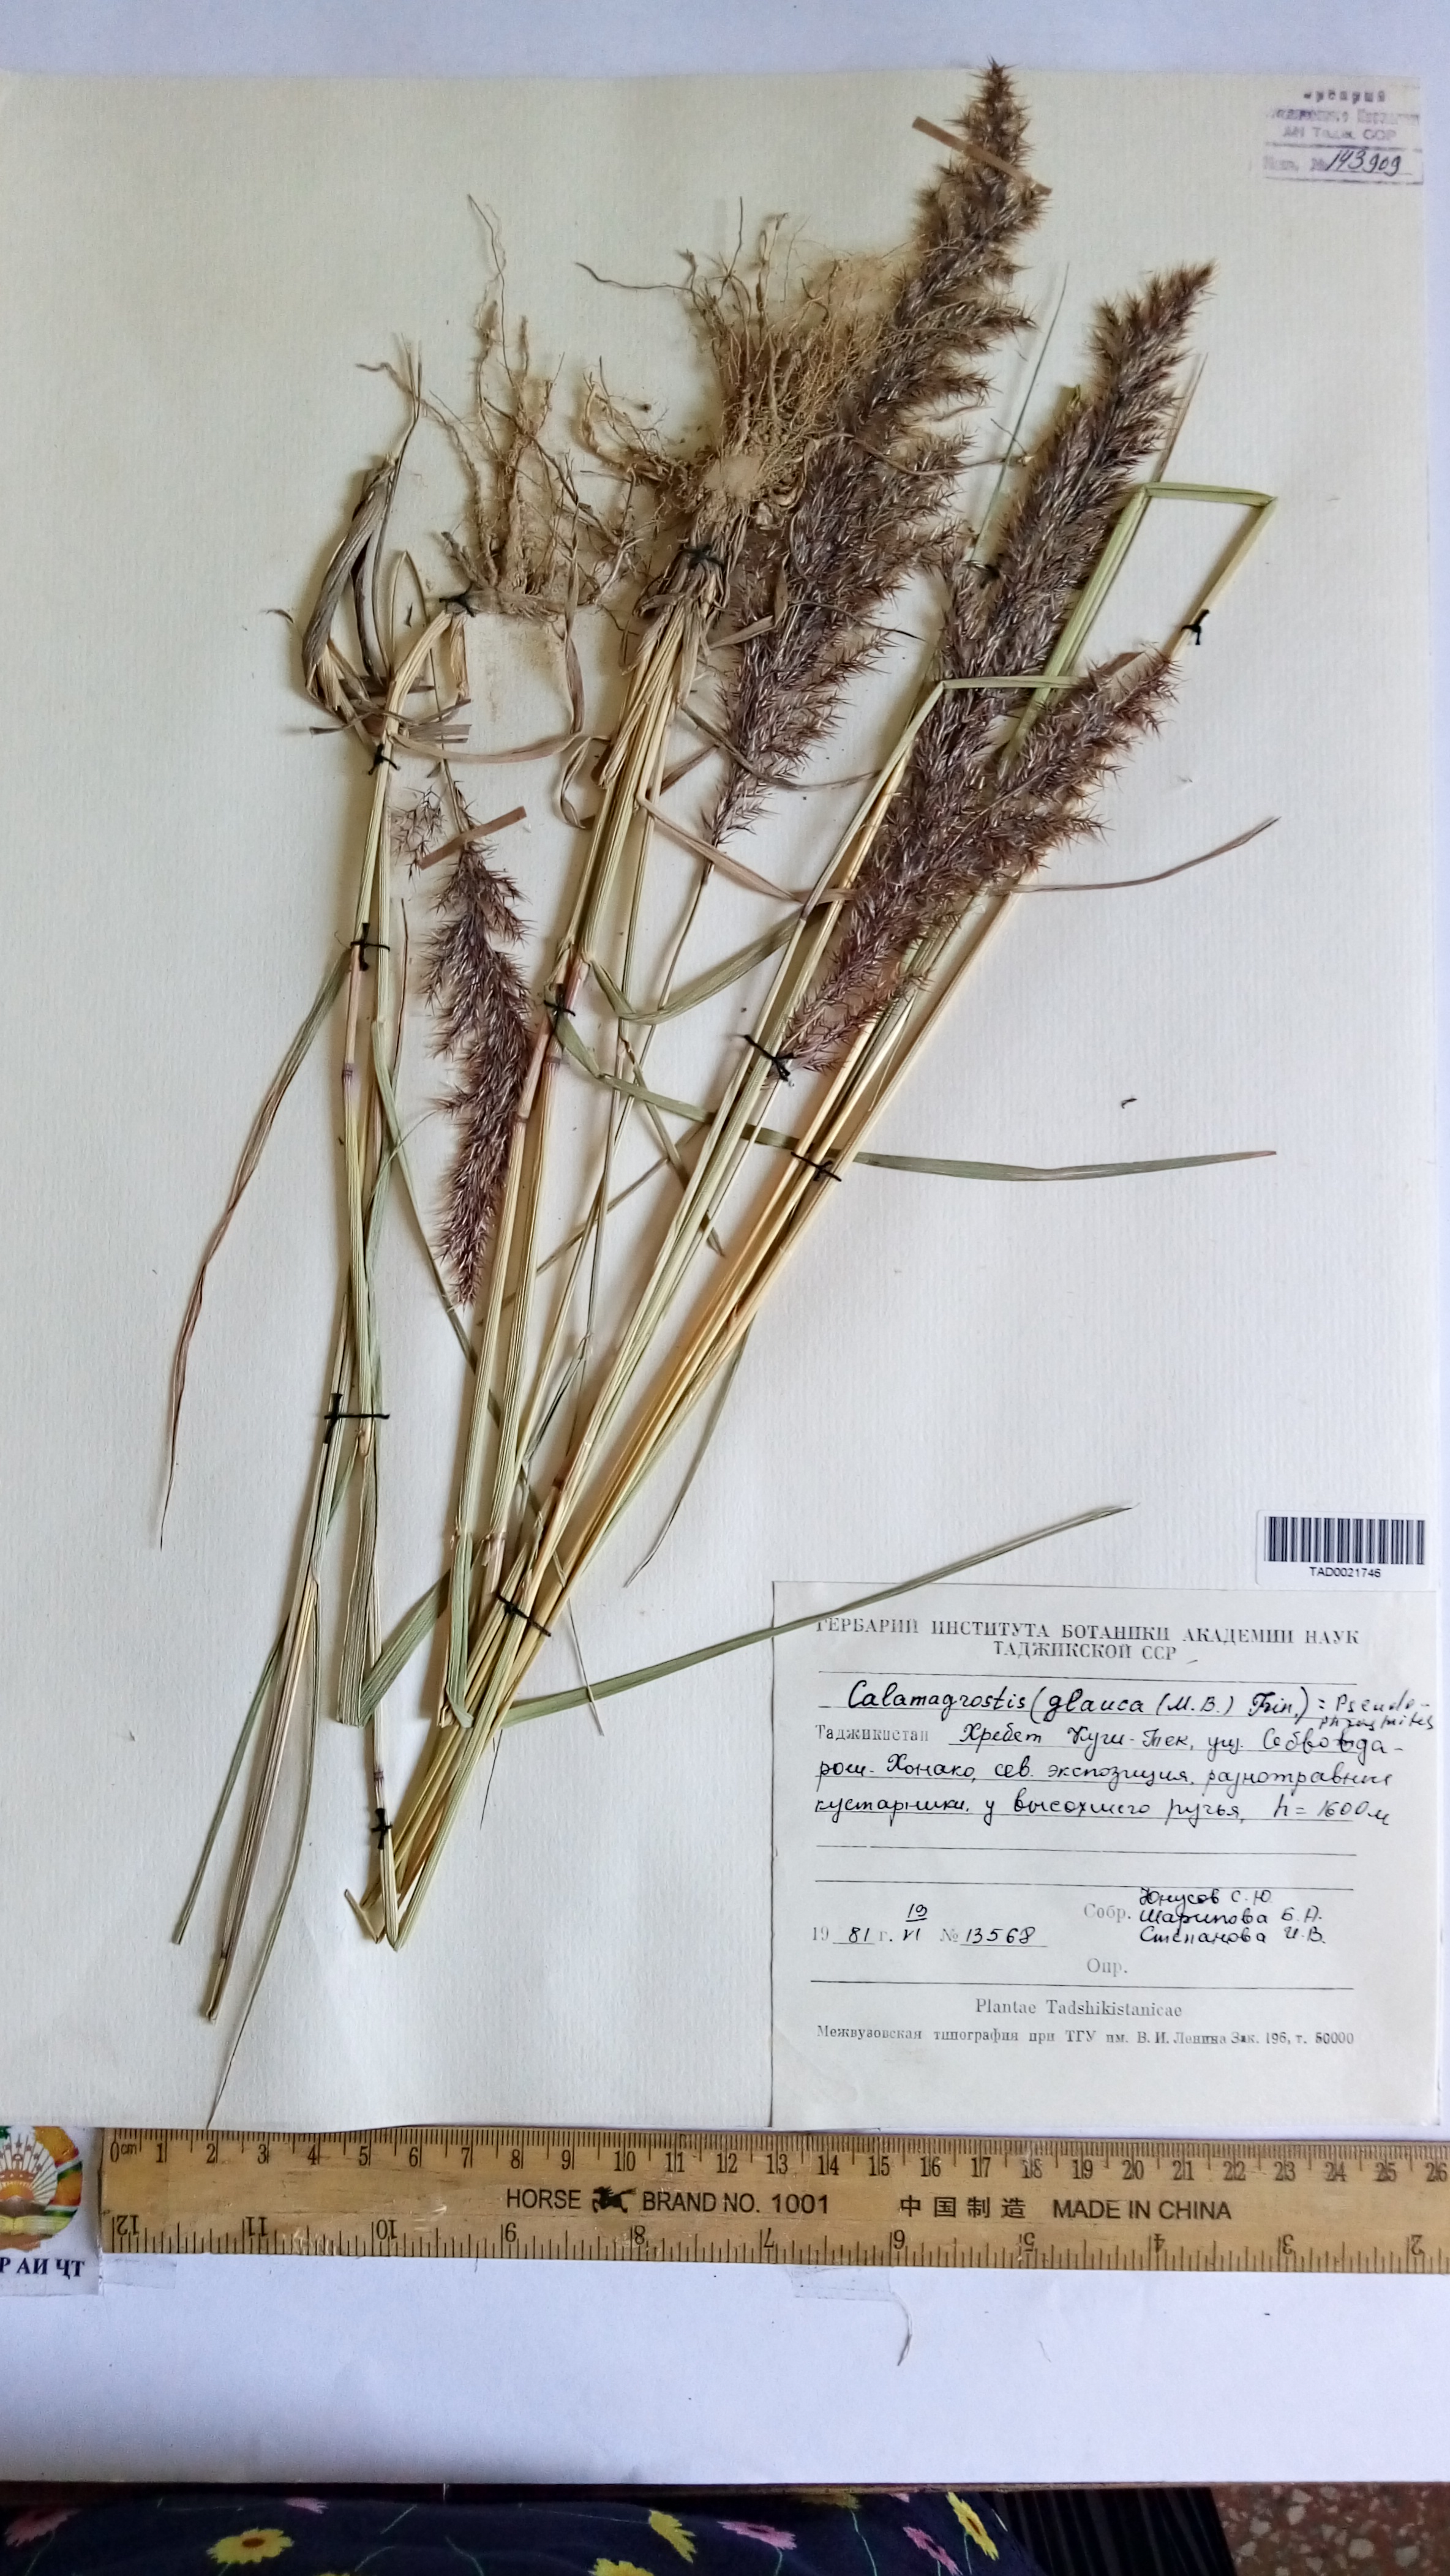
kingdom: Plantae
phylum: Tracheophyta
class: Liliopsida
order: Poales
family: Poaceae
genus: Calamagrostis
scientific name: Calamagrostis pseudophragmites
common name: Coastal small-reed
